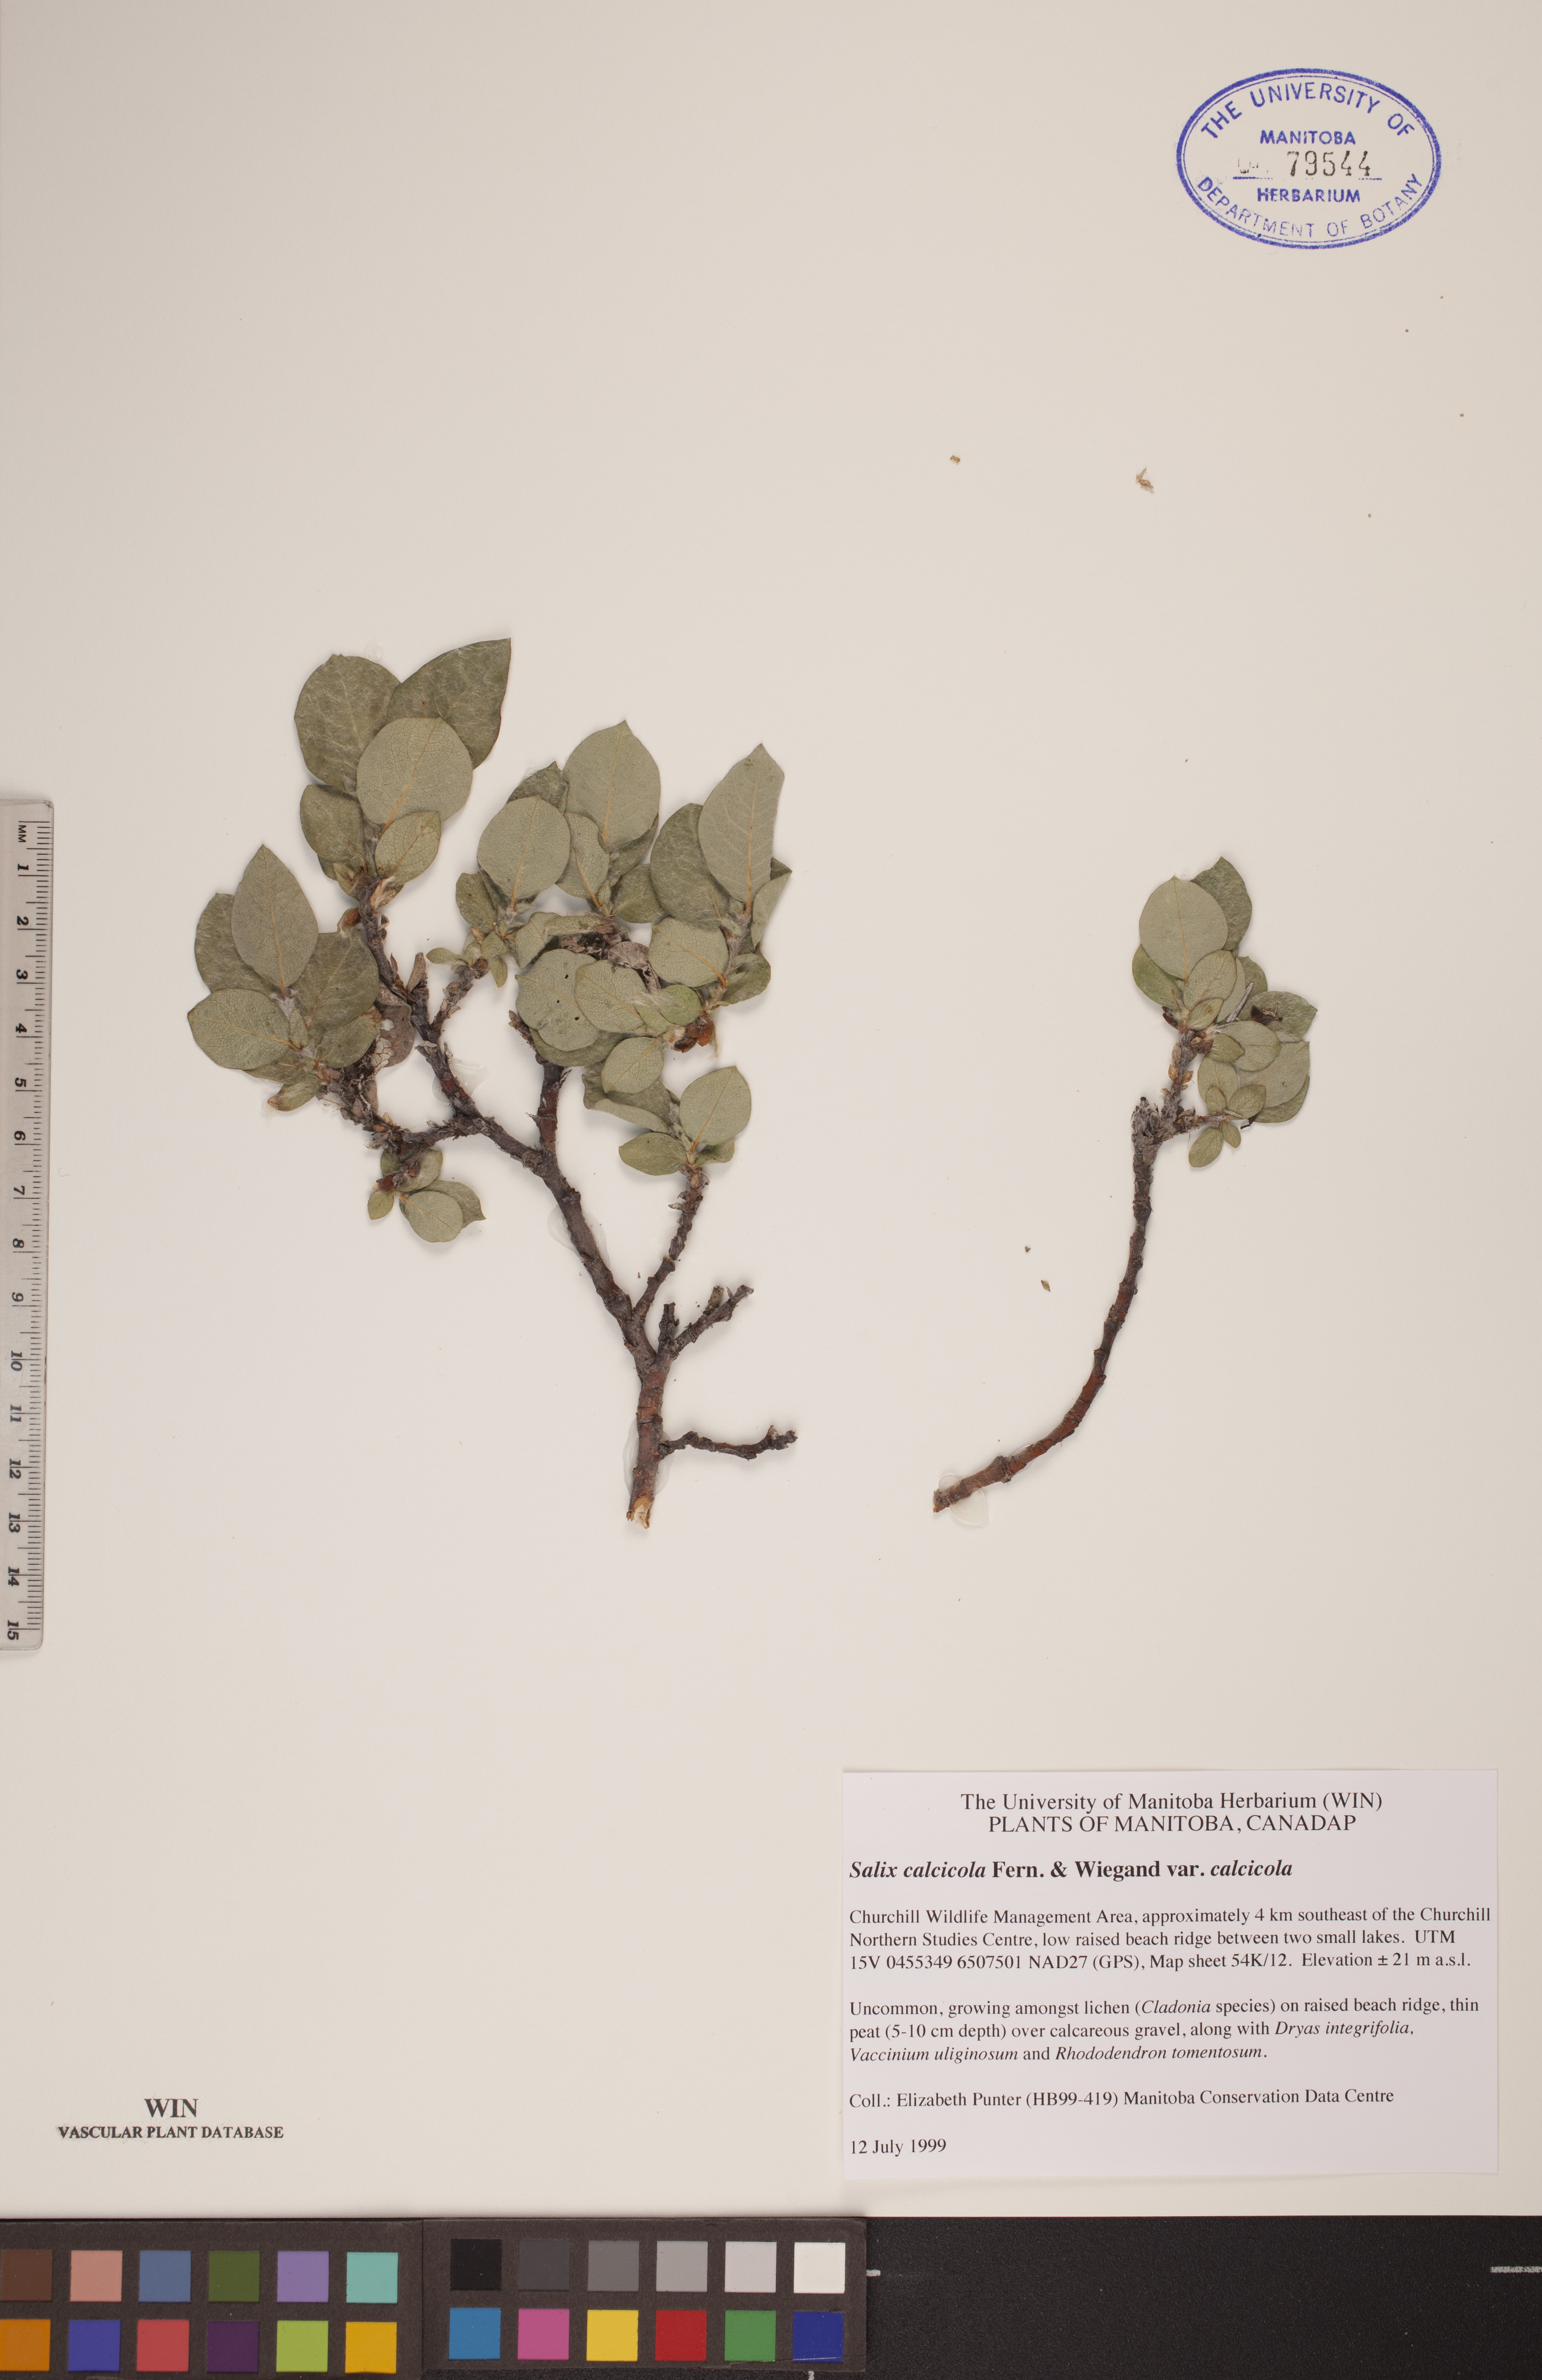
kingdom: Plantae
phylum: Tracheophyta
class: Magnoliopsida
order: Malpighiales
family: Salicaceae
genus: Salix
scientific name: Salix calcicola
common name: Calcareous willow
